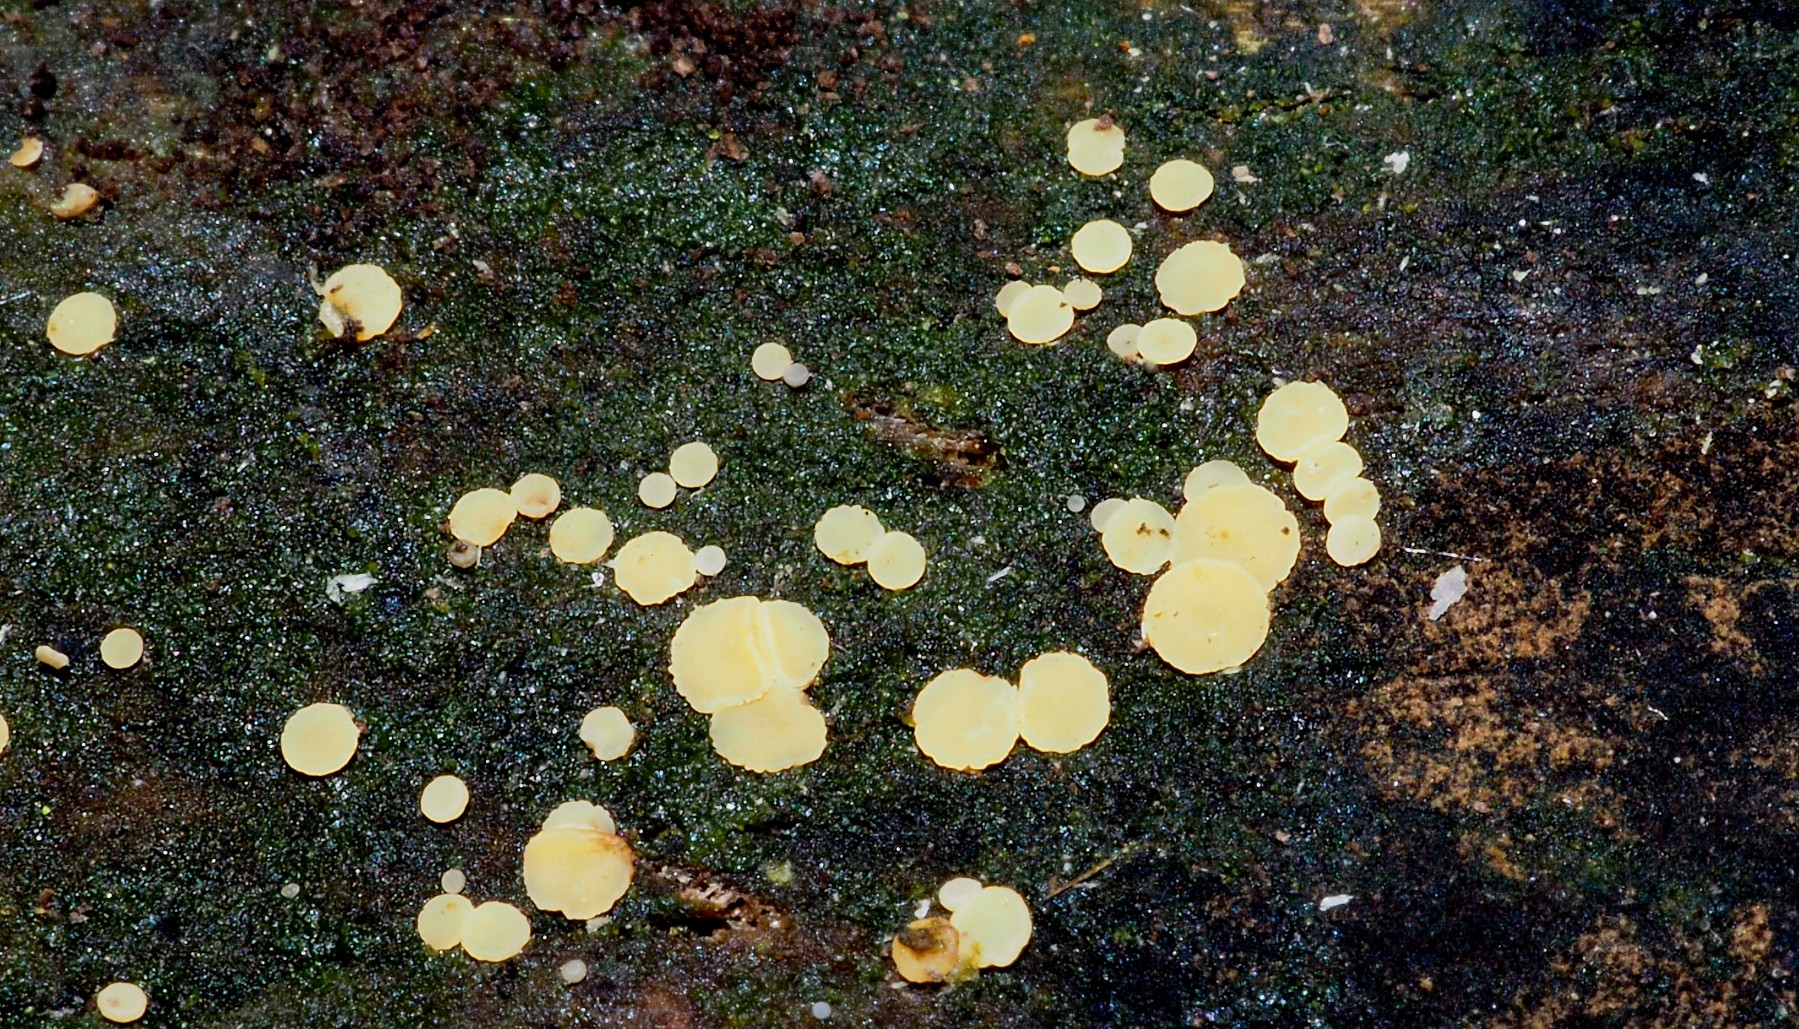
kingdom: Fungi
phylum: Ascomycota
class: Leotiomycetes
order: Helotiales
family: Helotiaceae
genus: Bisporella
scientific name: Bisporella
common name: snitskive
